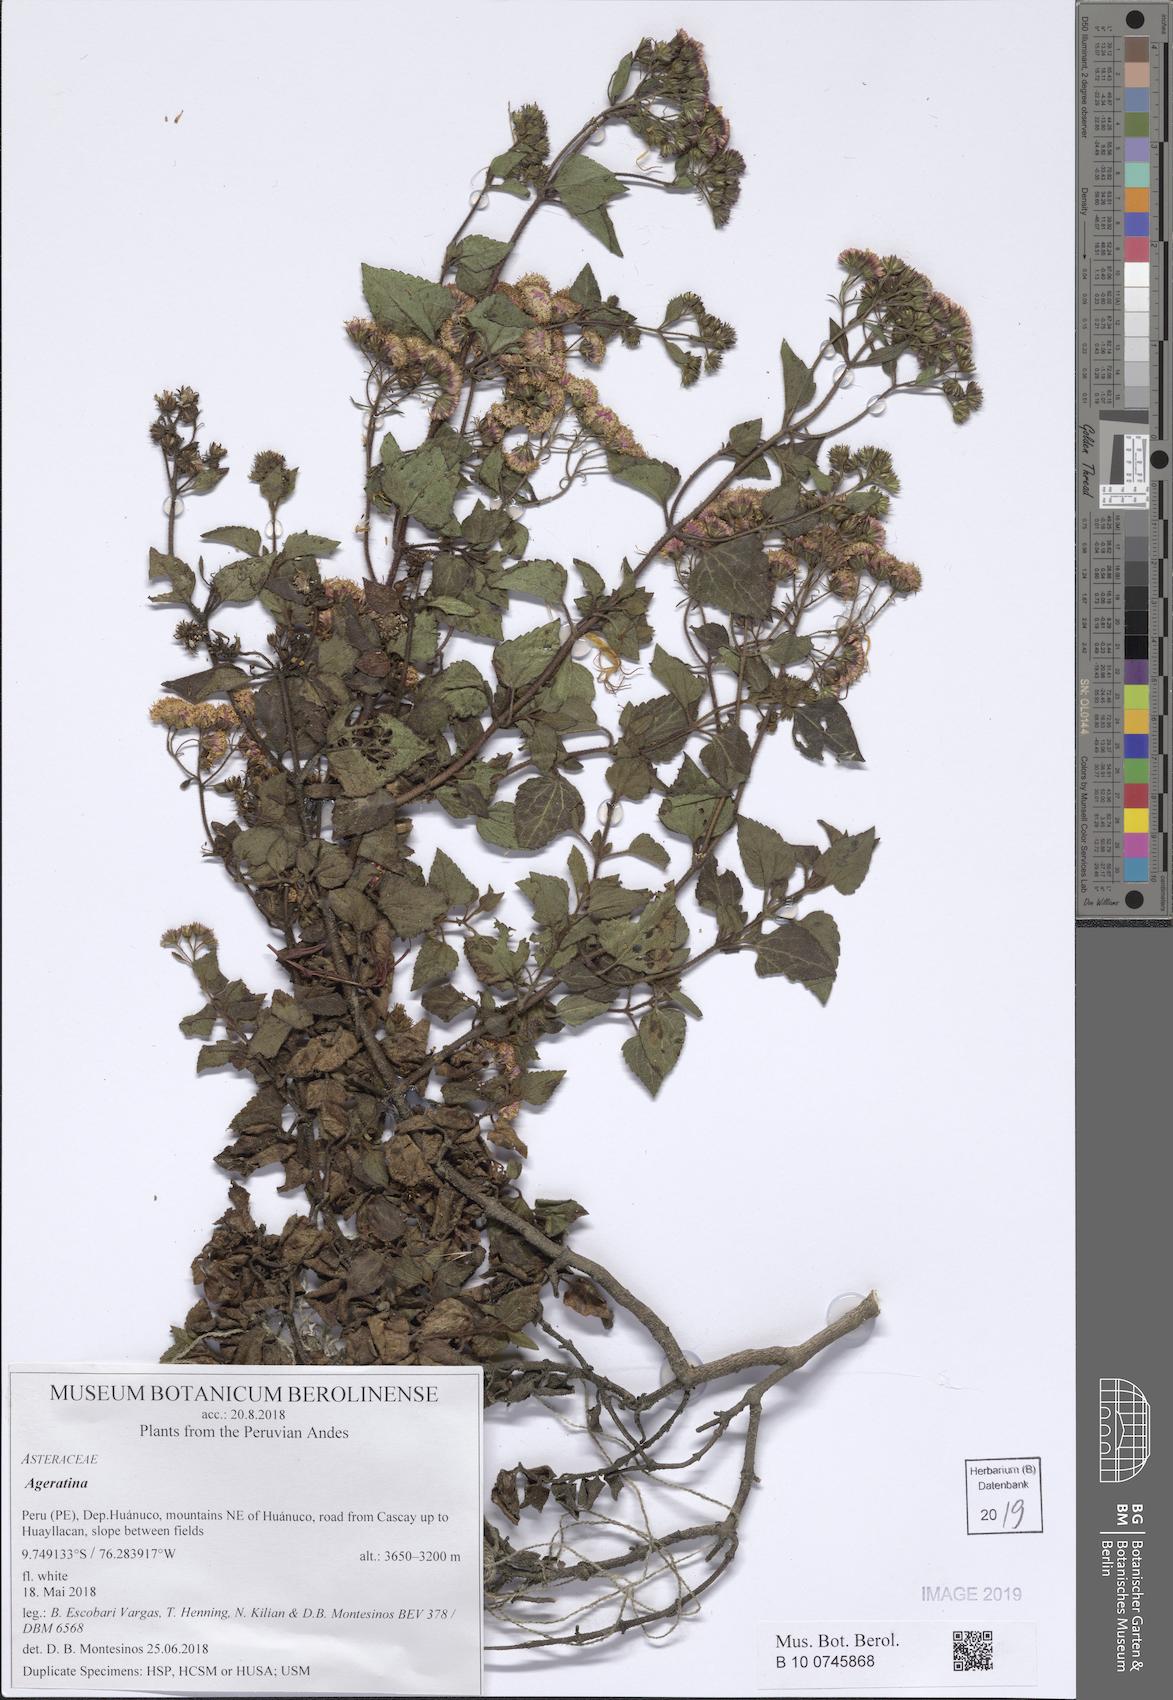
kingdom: Plantae
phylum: Tracheophyta
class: Magnoliopsida
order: Asterales
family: Asteraceae
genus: Ageratina
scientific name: Ageratina
